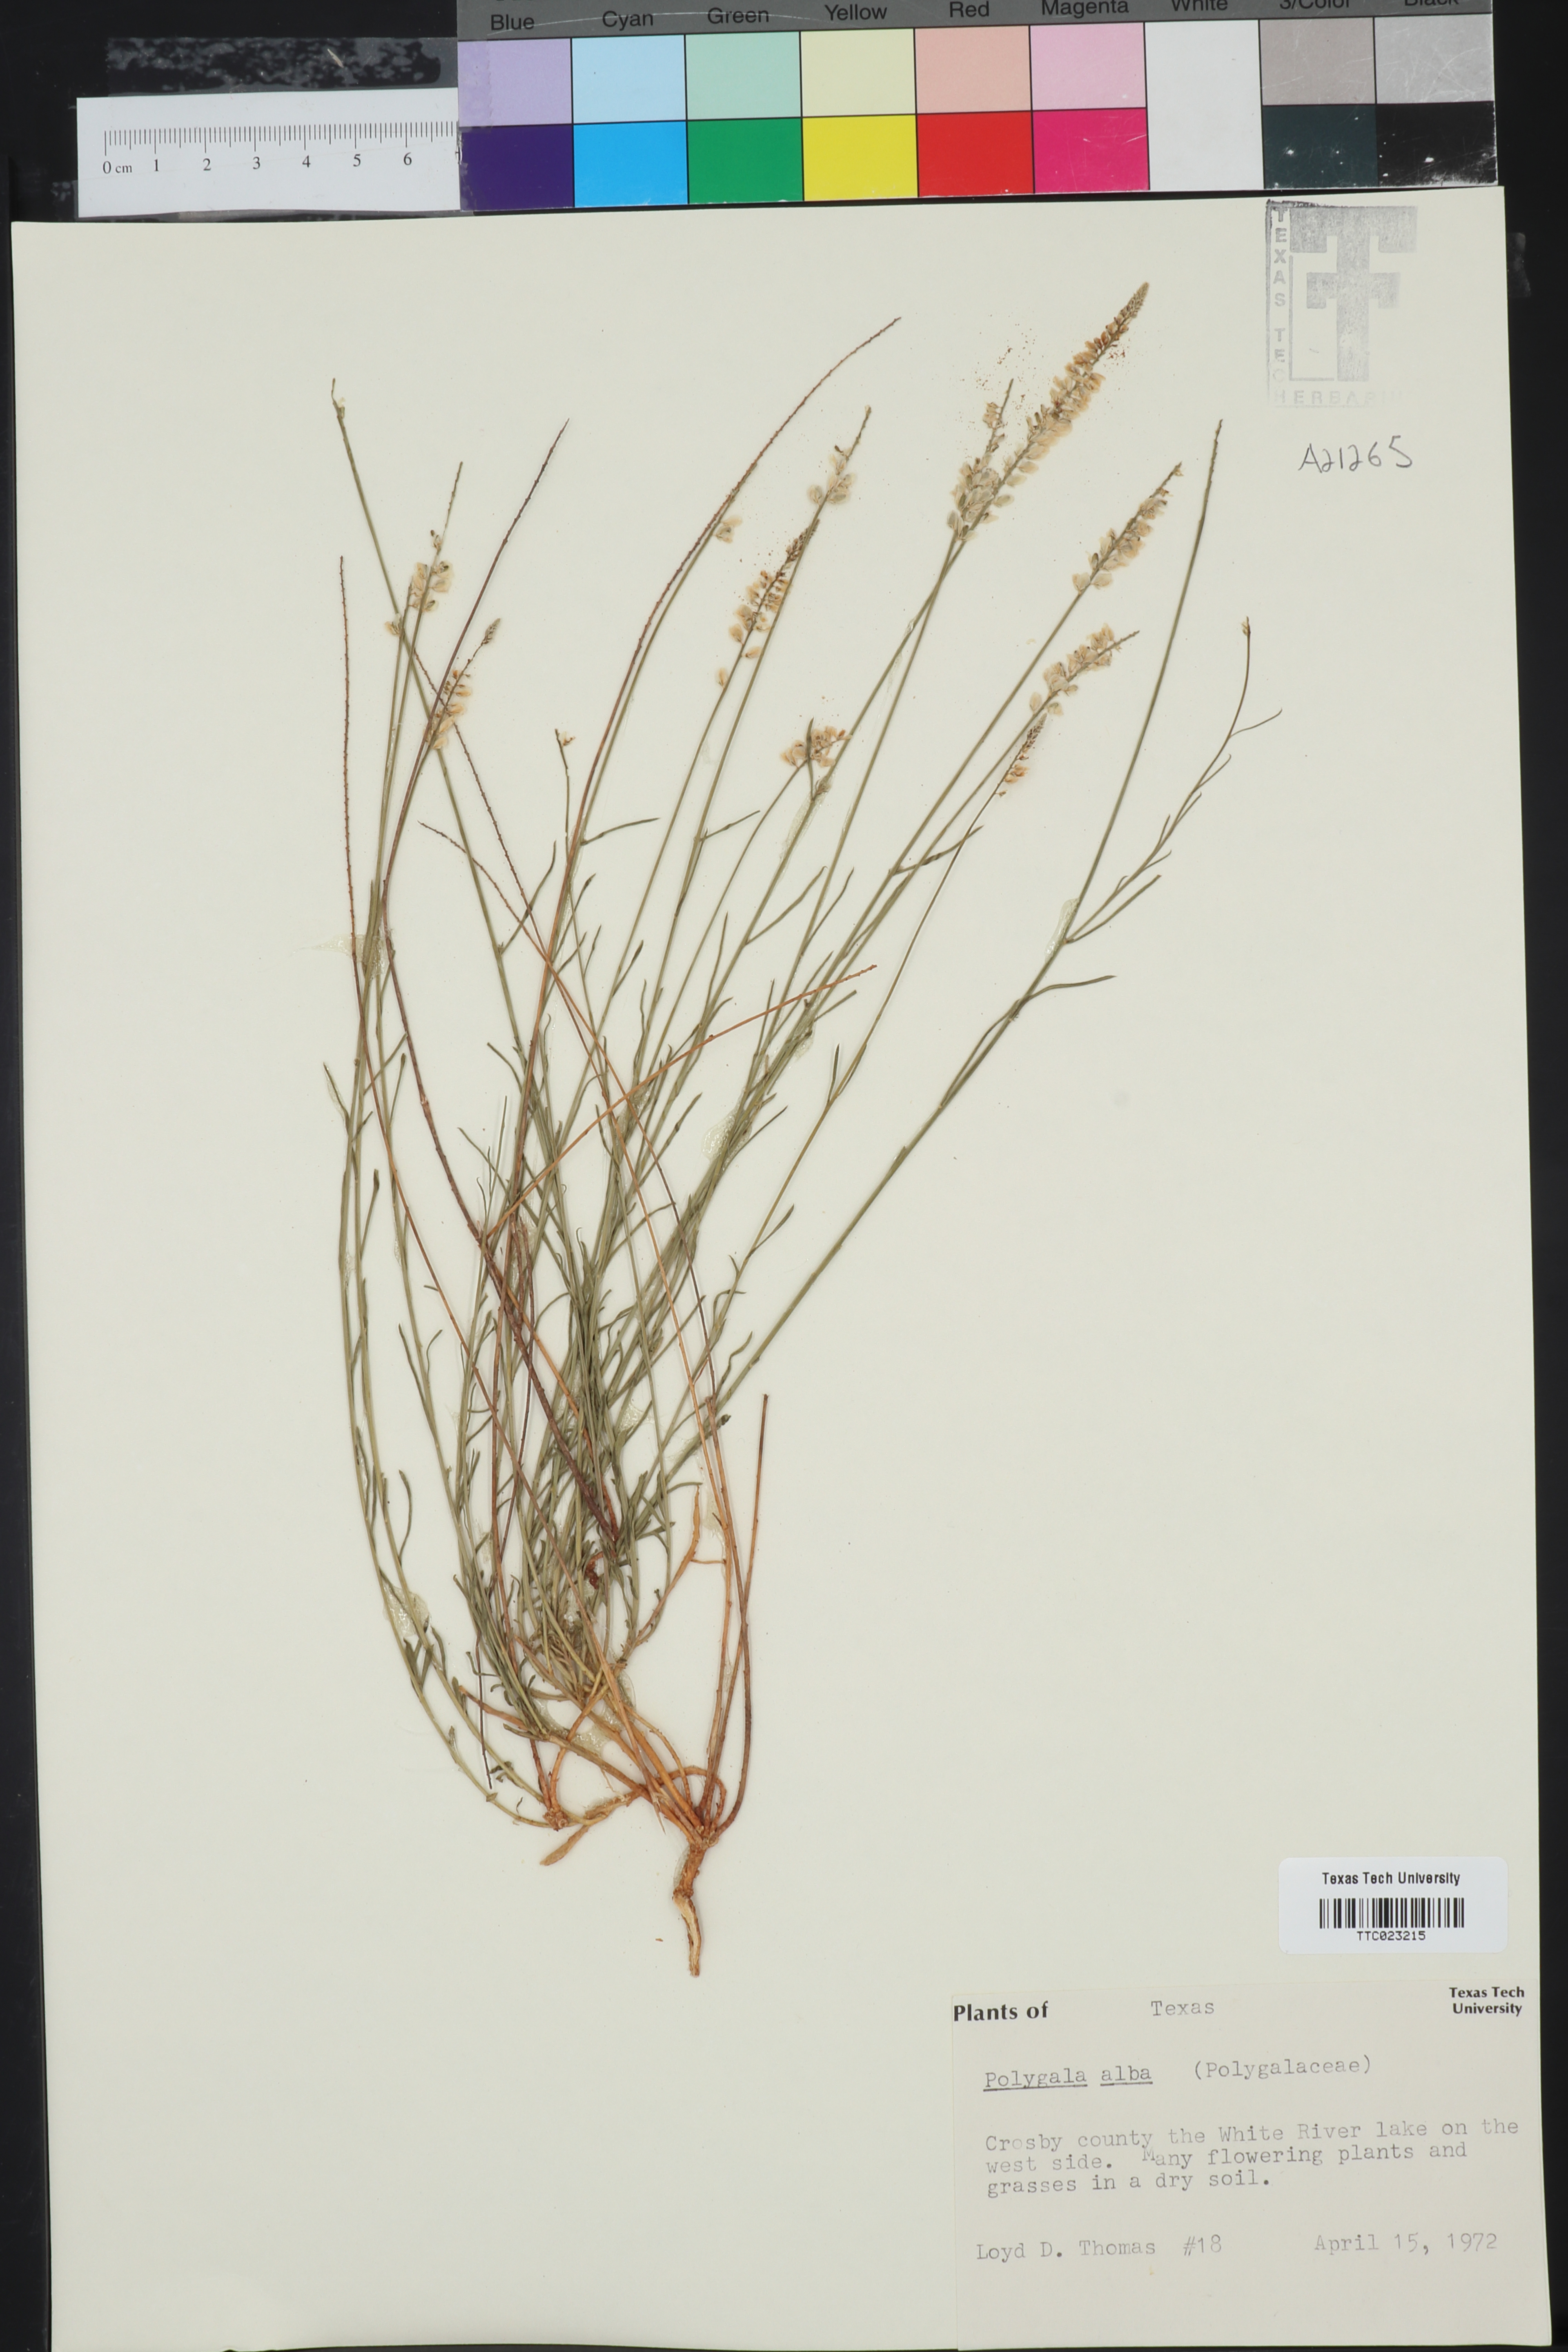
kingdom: Plantae
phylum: Tracheophyta
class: Magnoliopsida
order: Fabales
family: Polygalaceae
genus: Polygala
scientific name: Polygala alba
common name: White milkwort
